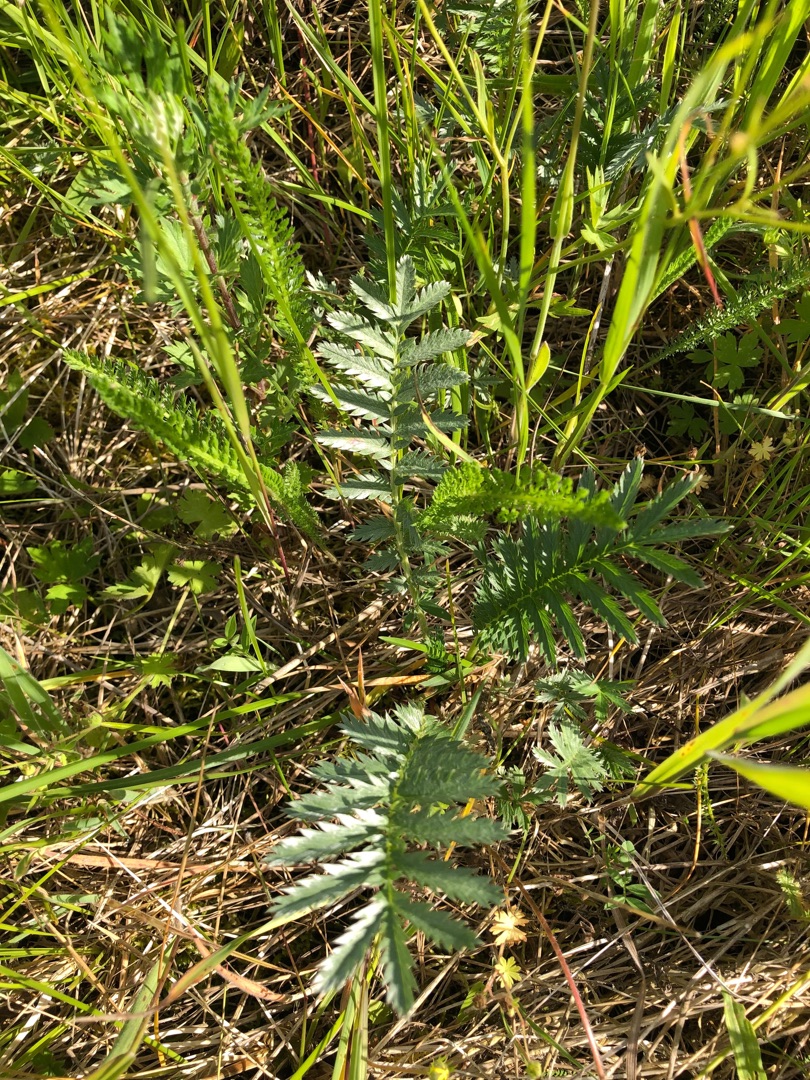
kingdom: Plantae
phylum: Tracheophyta
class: Magnoliopsida
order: Rosales
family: Rosaceae
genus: Argentina
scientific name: Argentina anserina
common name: Gåsepotentil
